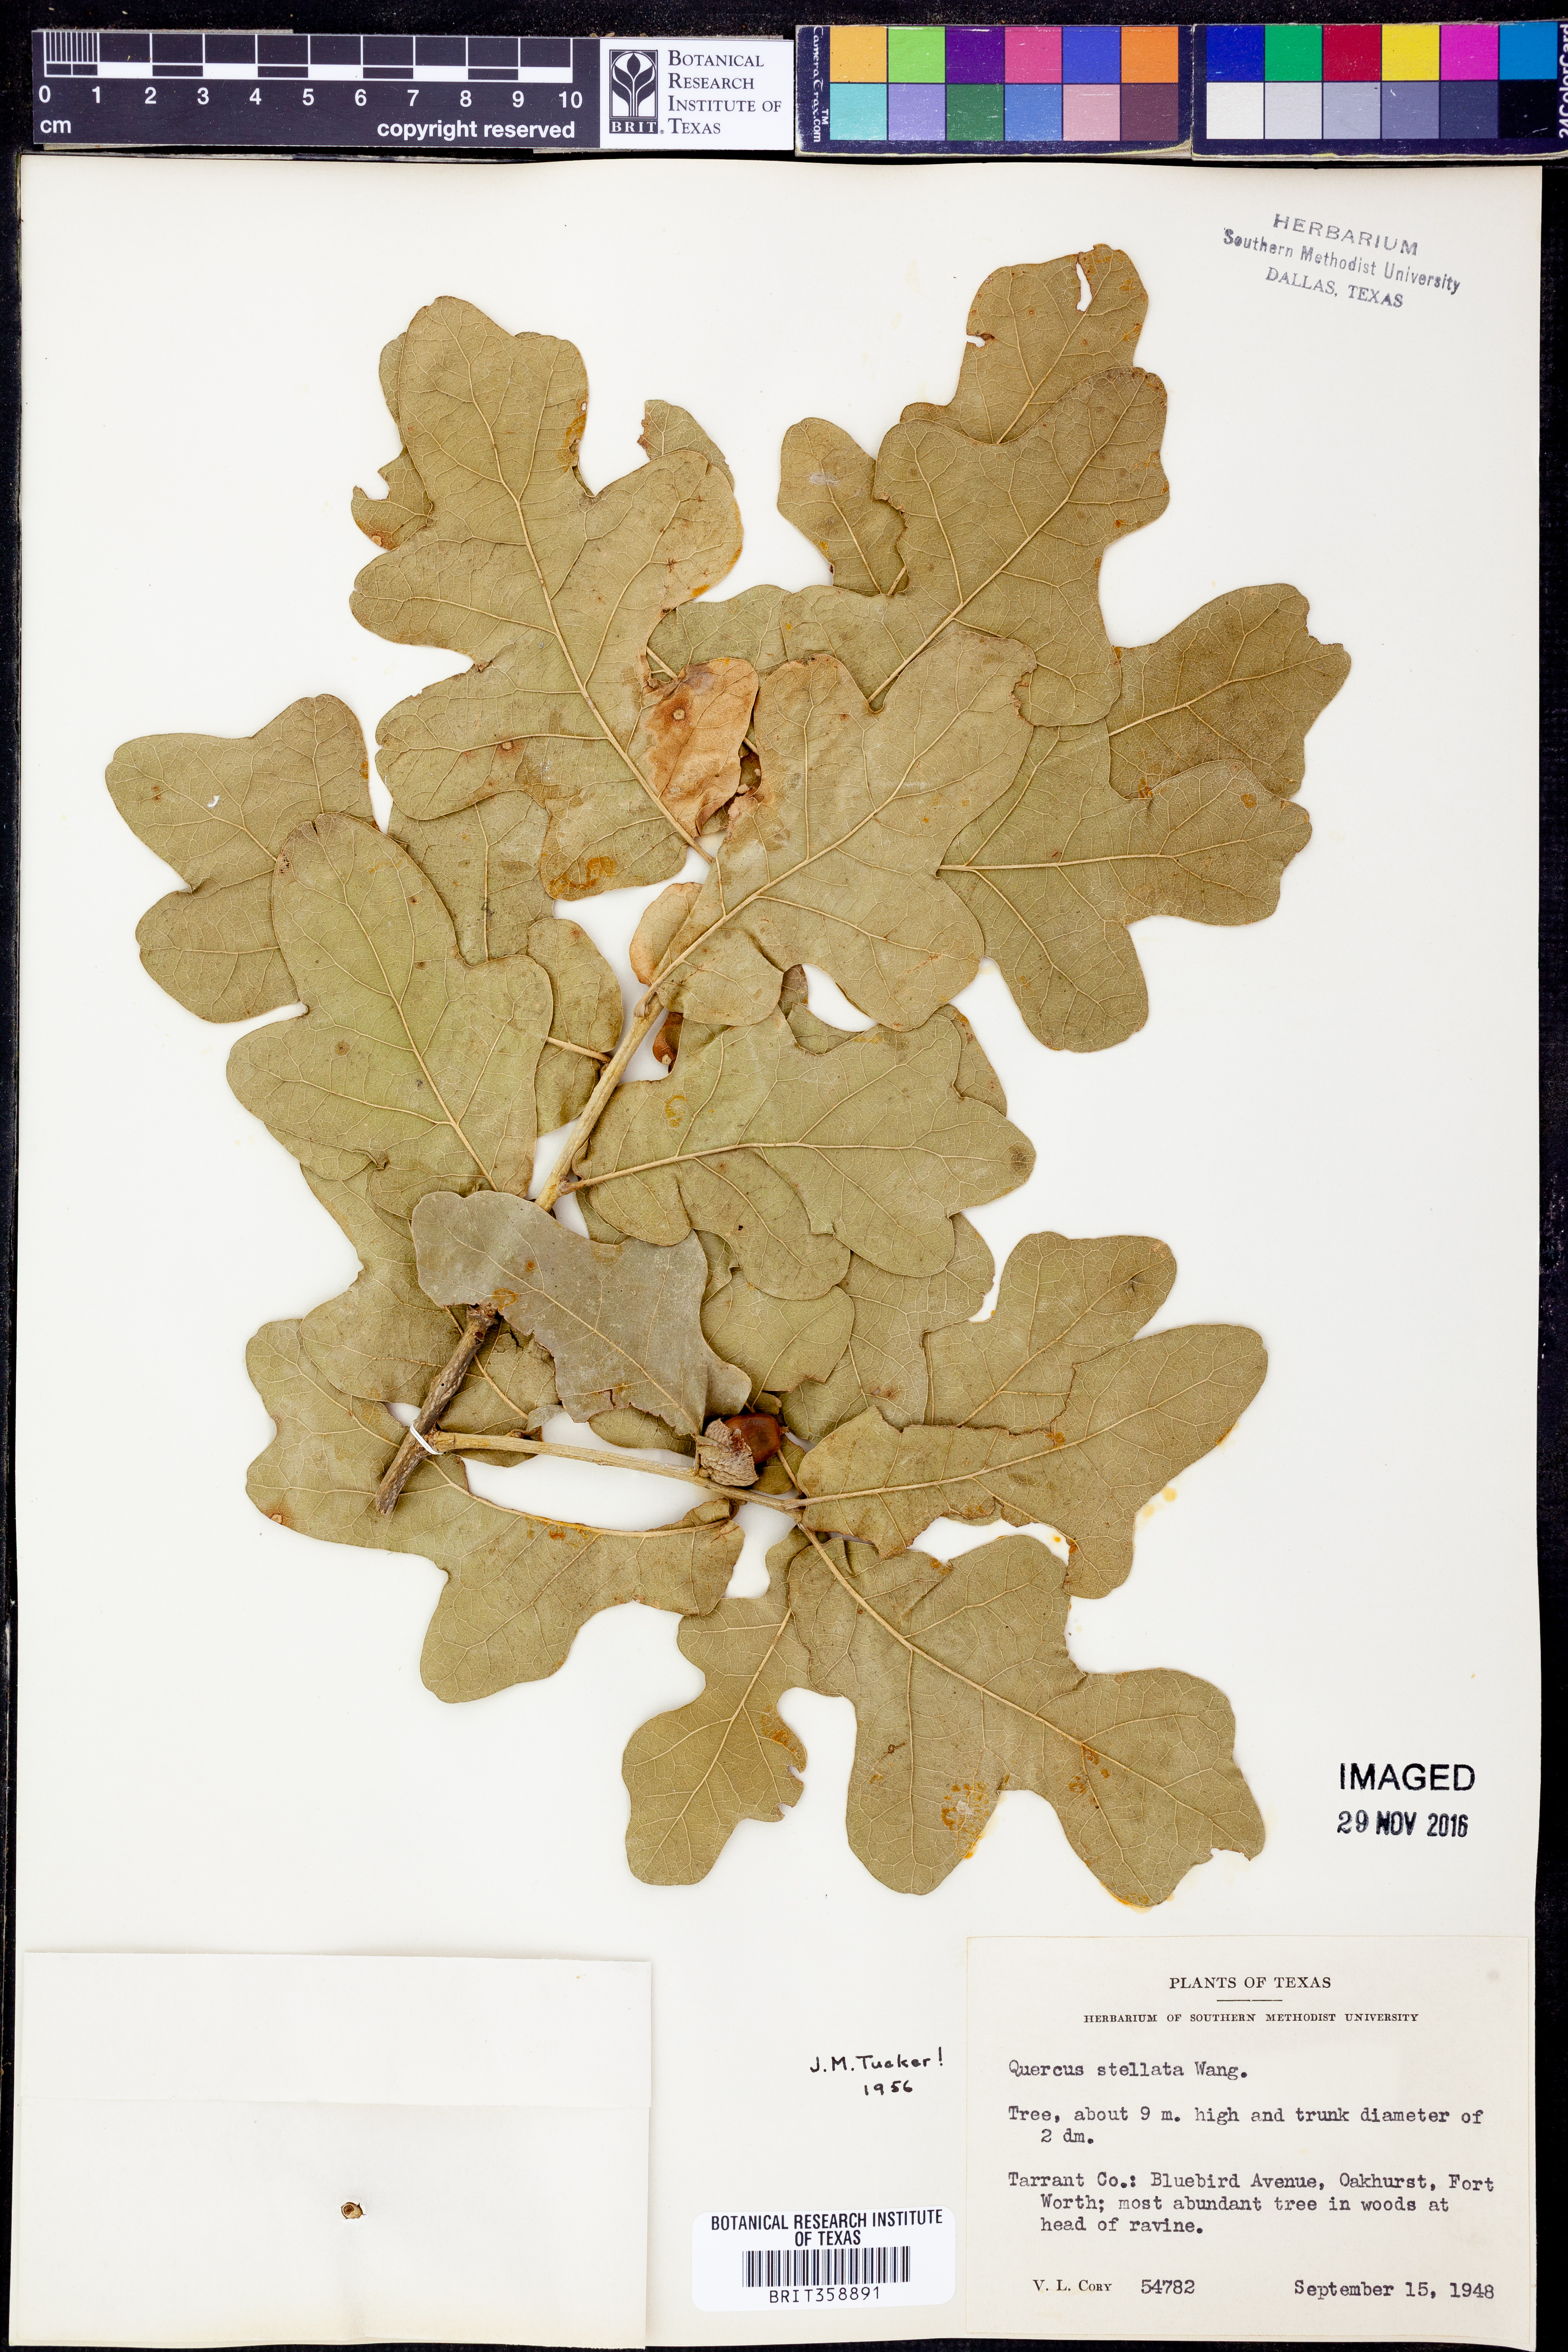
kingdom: Plantae
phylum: Tracheophyta
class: Magnoliopsida
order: Fagales
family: Fagaceae
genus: Quercus
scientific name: Quercus stellata
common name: Post oak
